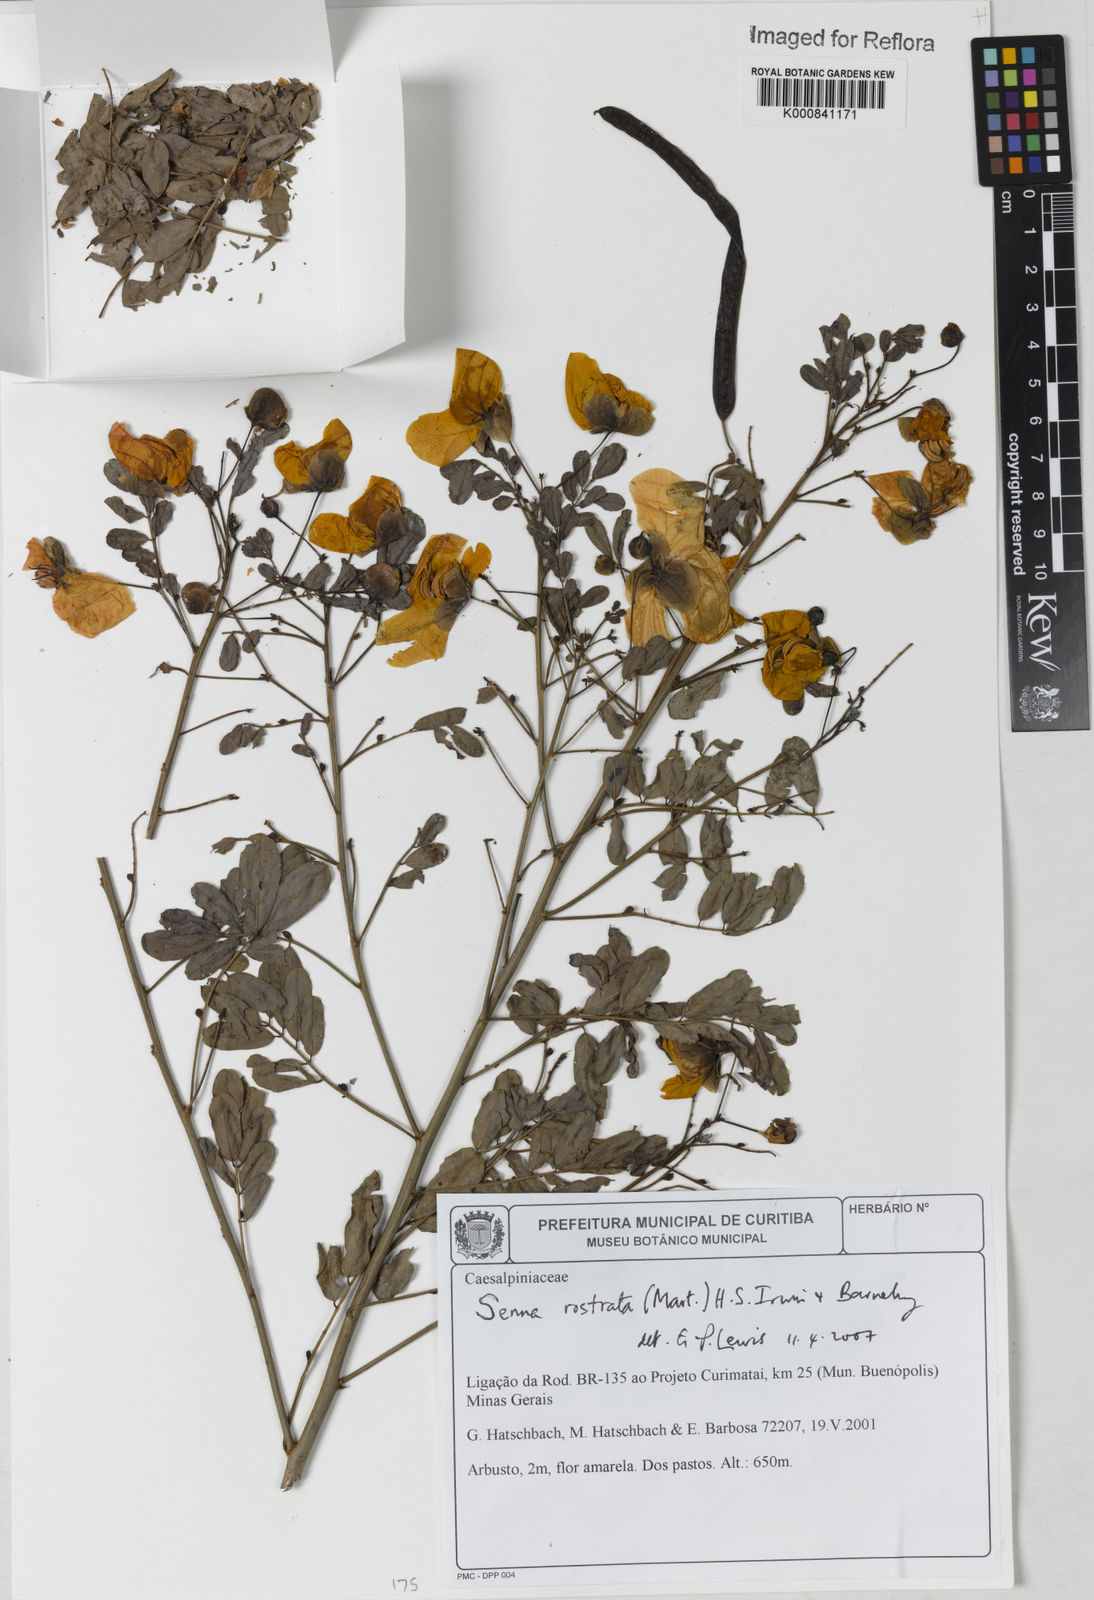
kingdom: Plantae
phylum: Tracheophyta
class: Magnoliopsida
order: Fabales
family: Fabaceae
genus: Senna
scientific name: Senna rostrata
